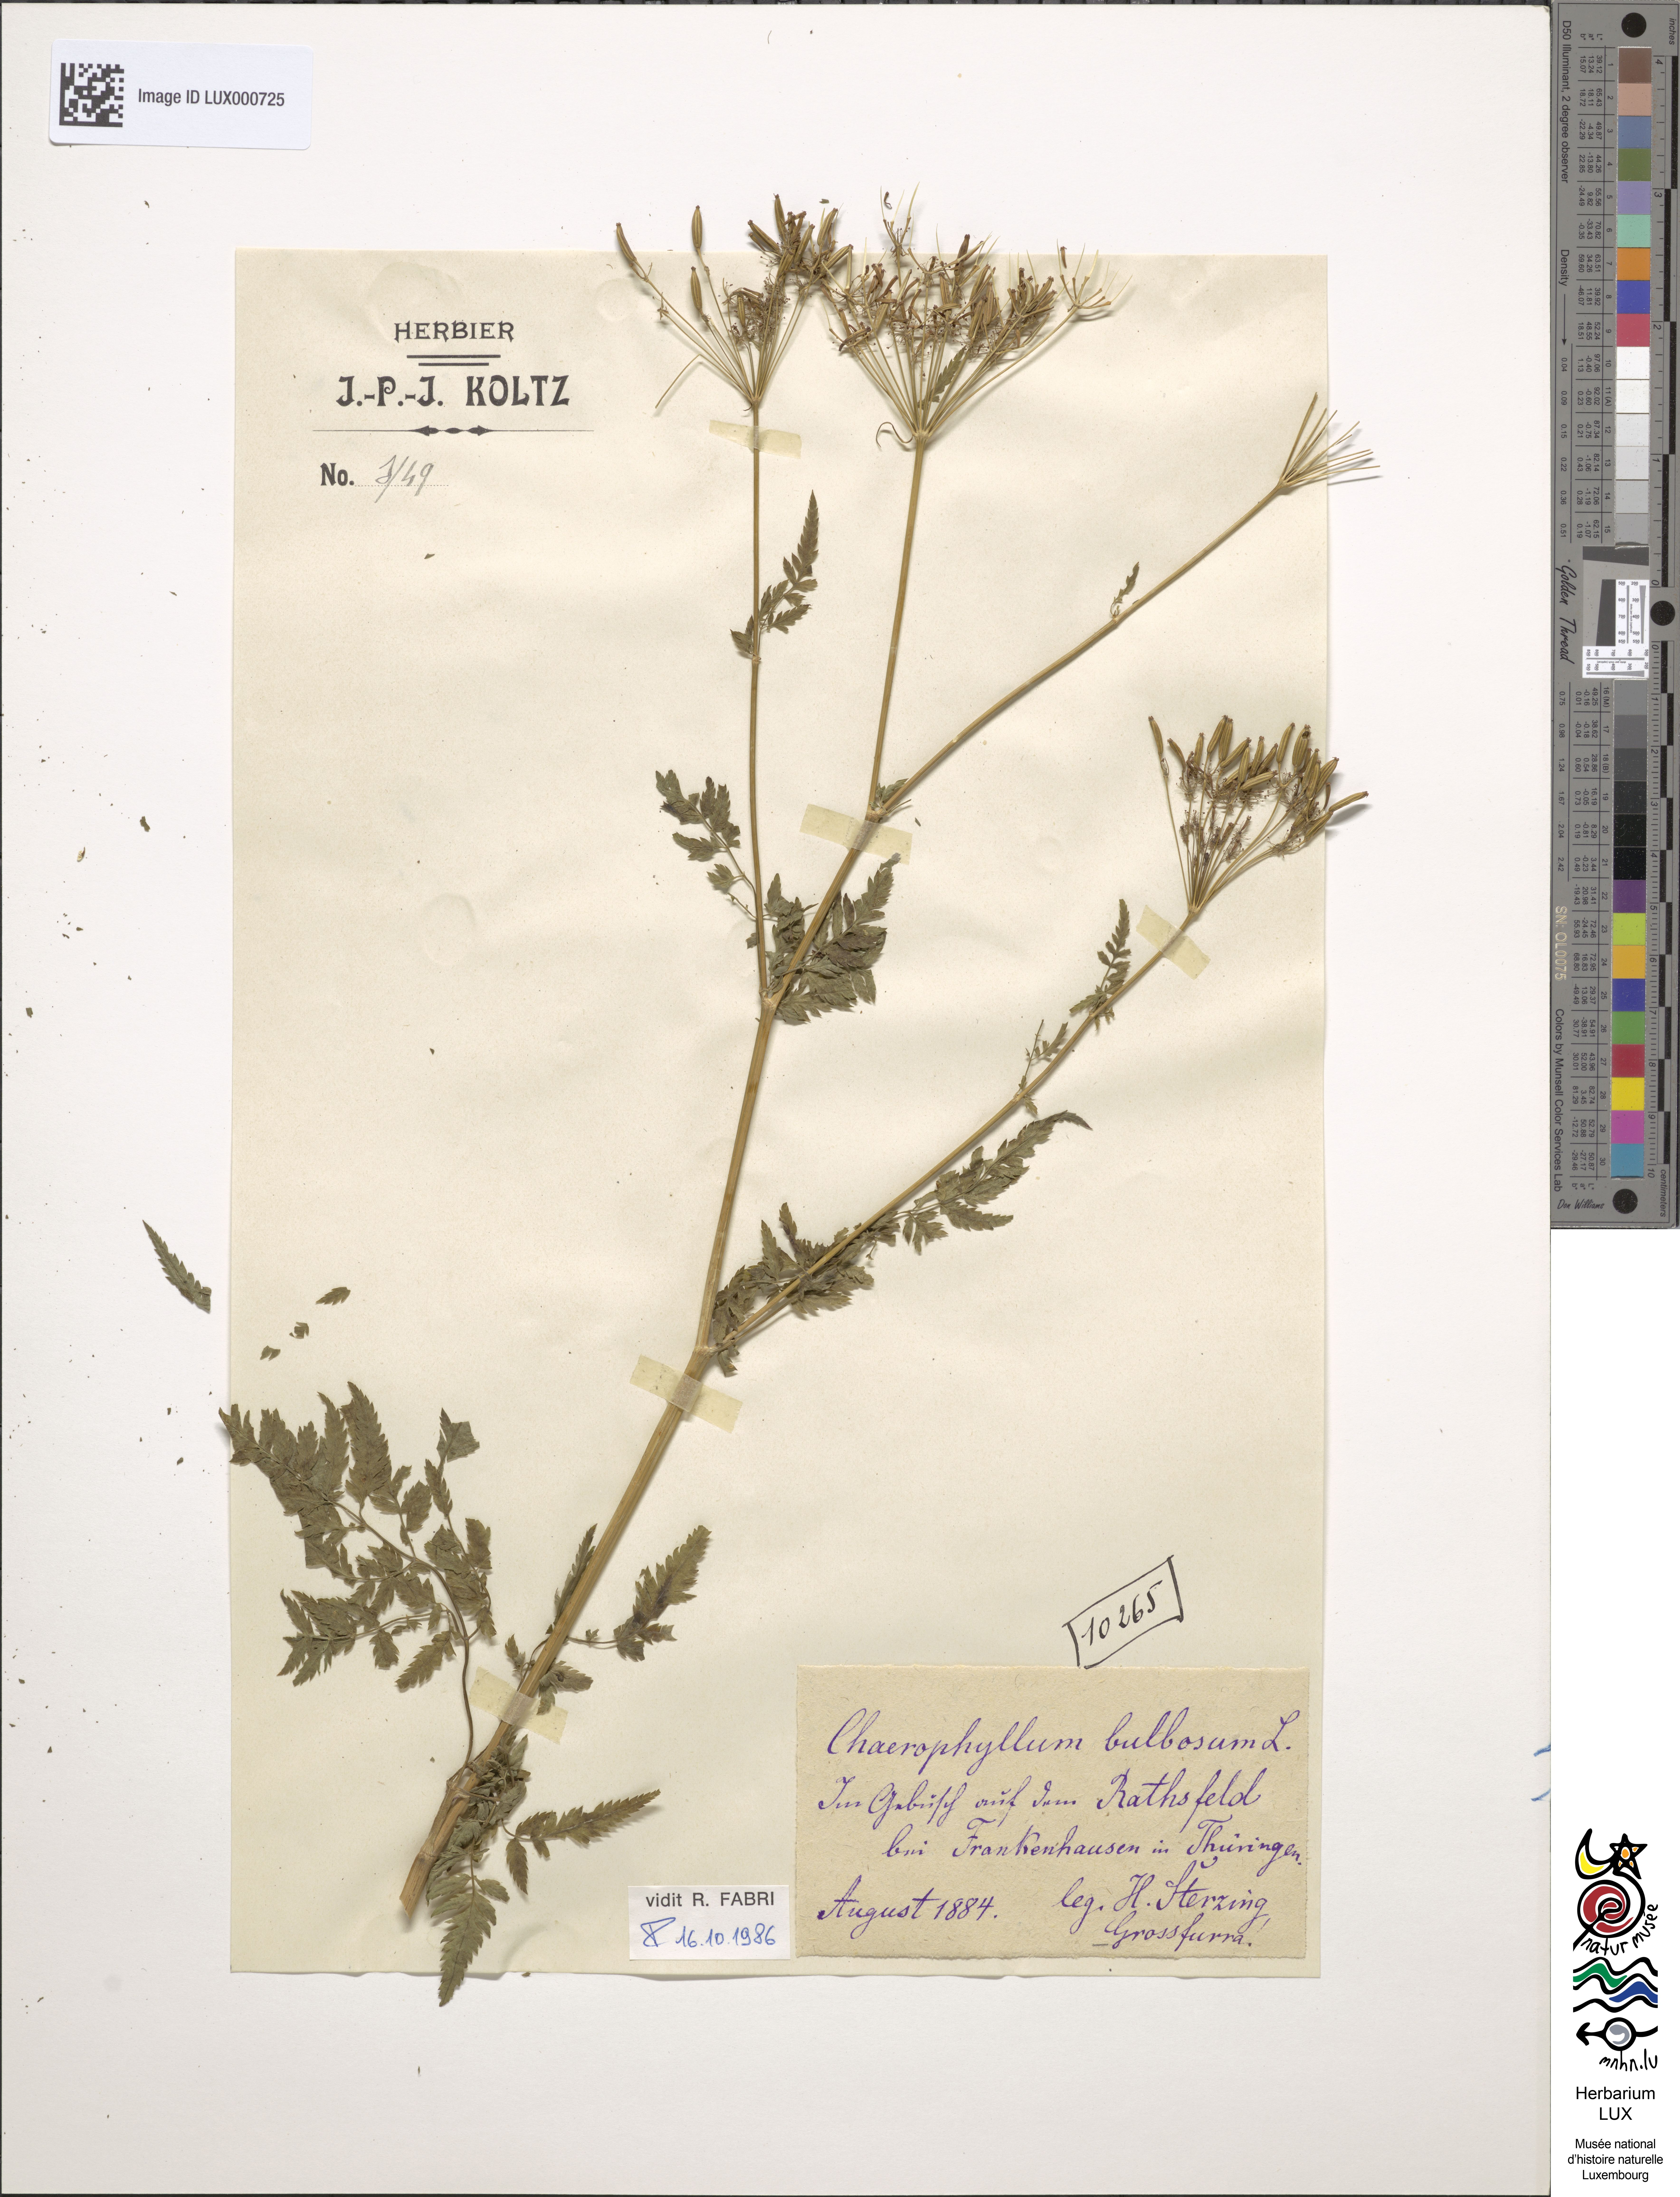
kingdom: Plantae
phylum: Tracheophyta
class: Magnoliopsida
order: Apiales
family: Apiaceae
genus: Chaerophyllum
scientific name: Chaerophyllum bulbosum
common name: Bulbous chervil
